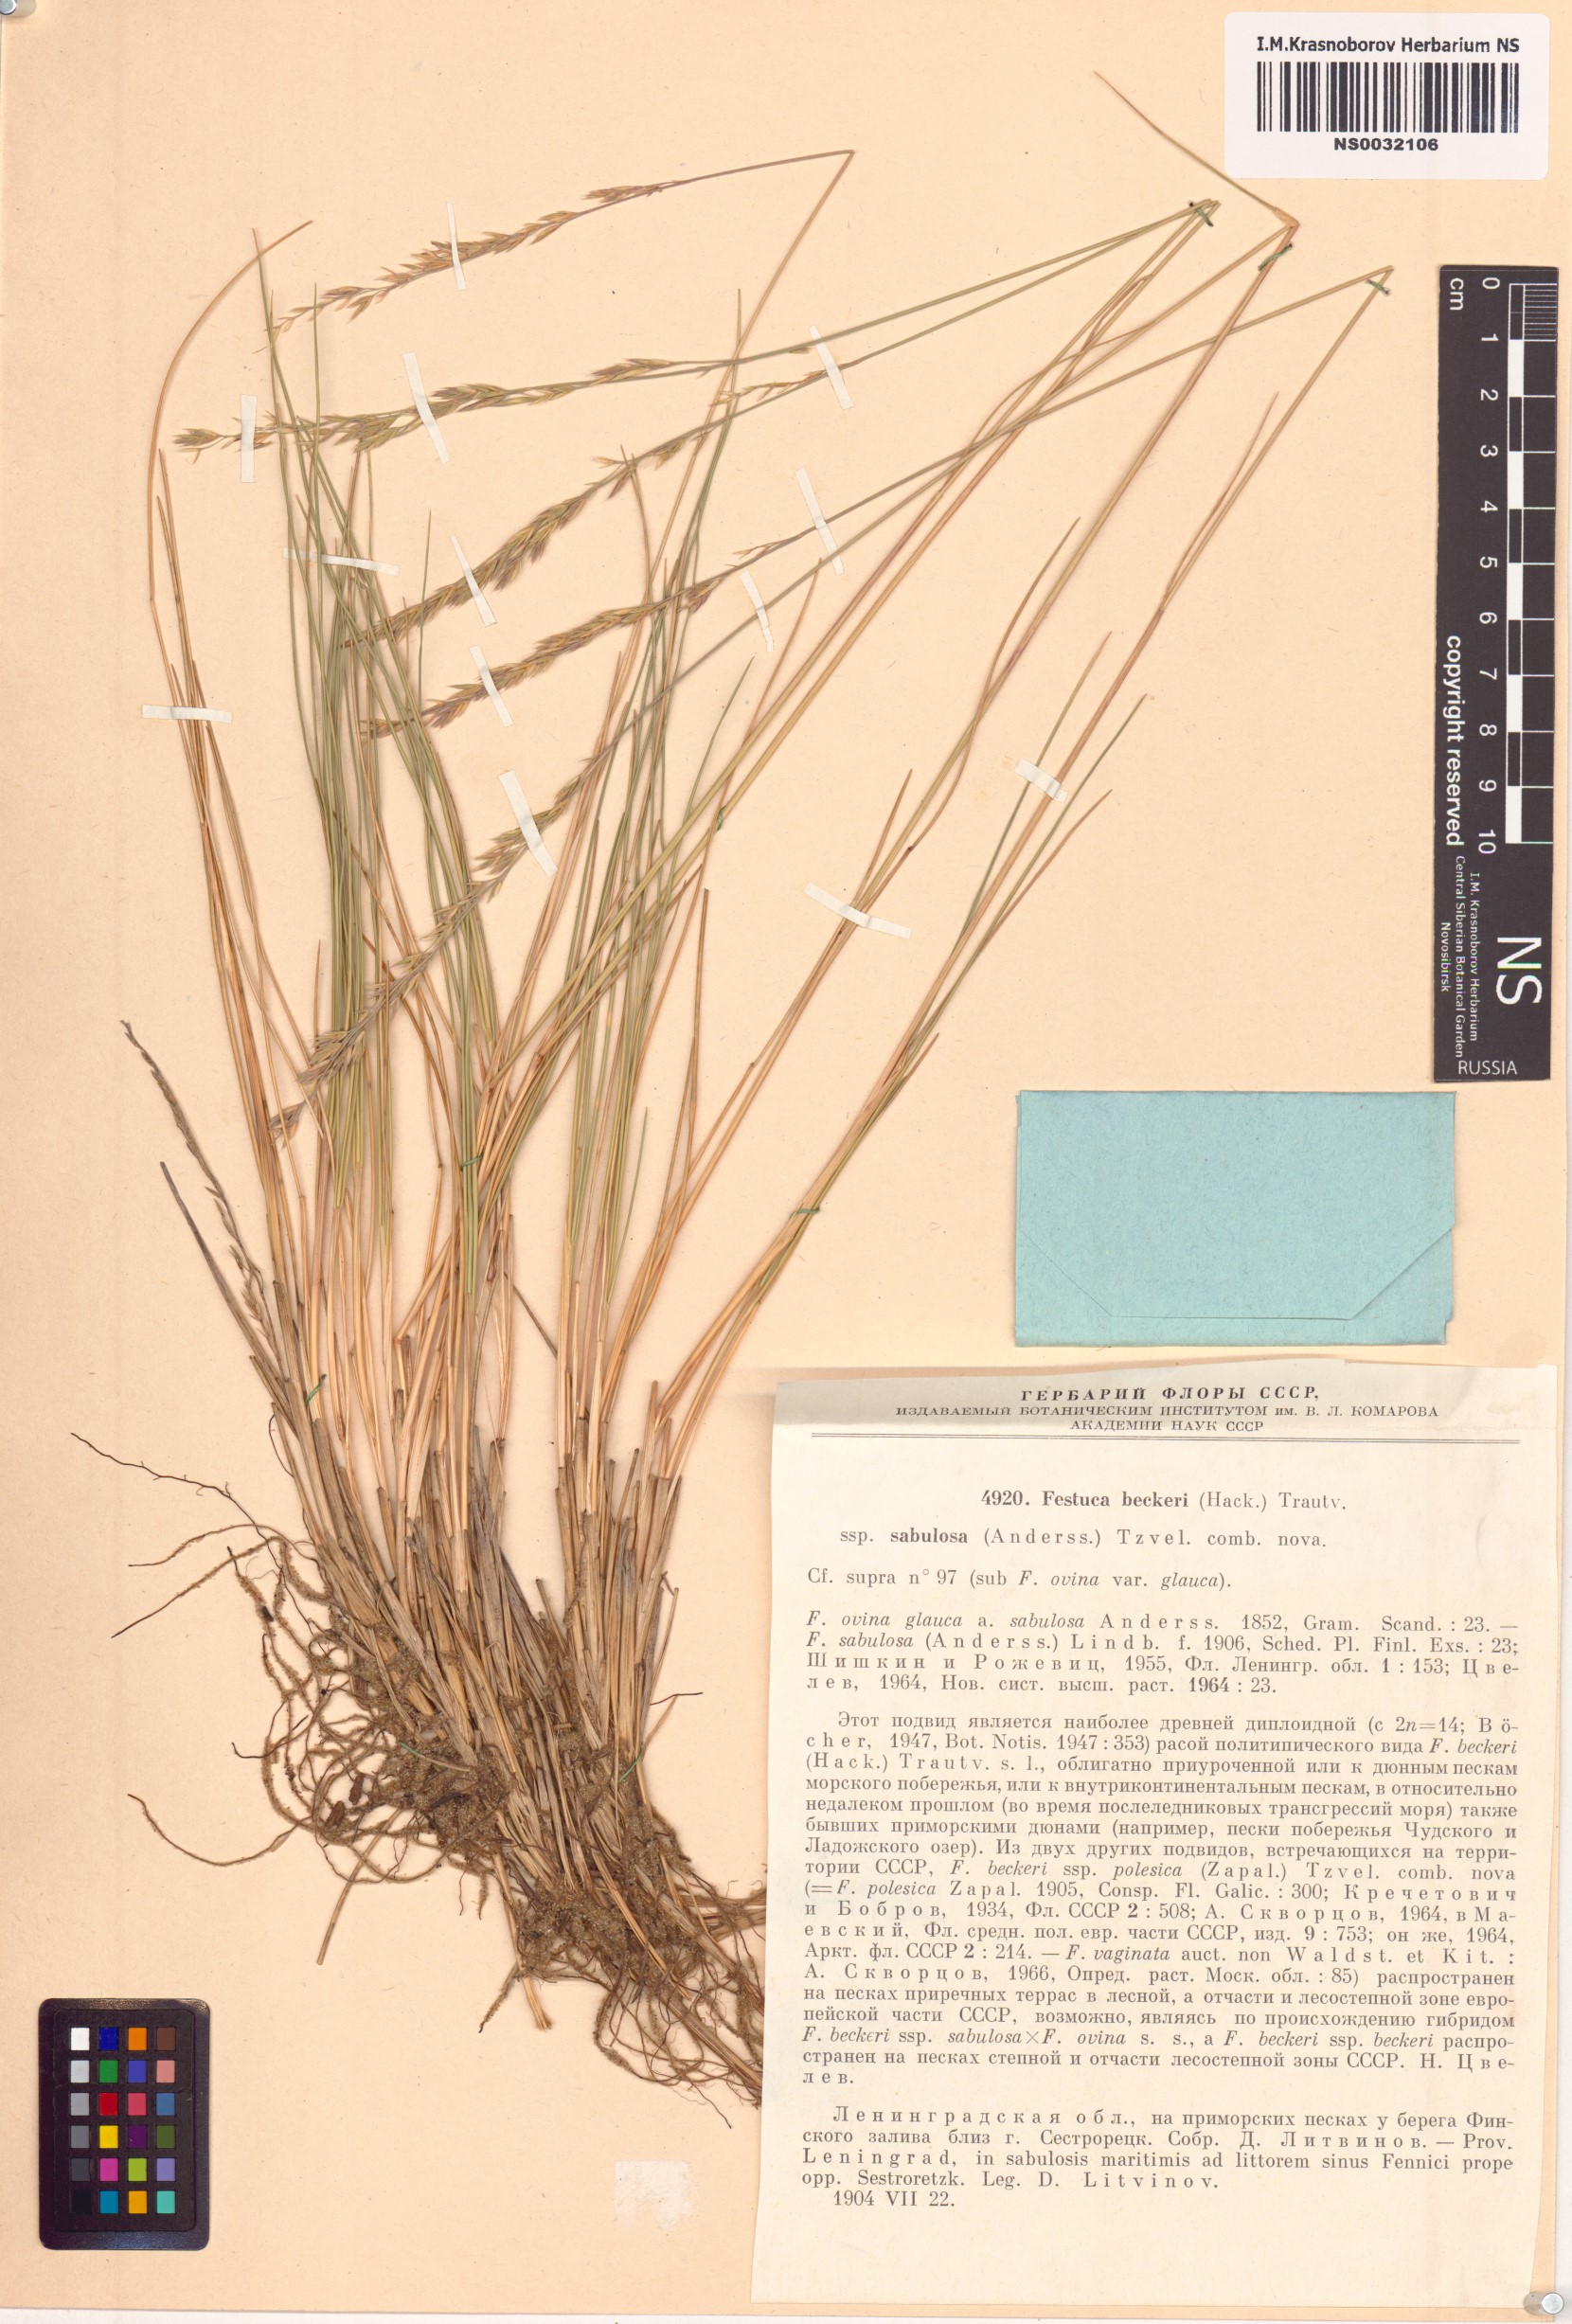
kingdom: Plantae
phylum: Tracheophyta
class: Liliopsida
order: Poales
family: Poaceae
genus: Festuca
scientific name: Festuca beckeri
